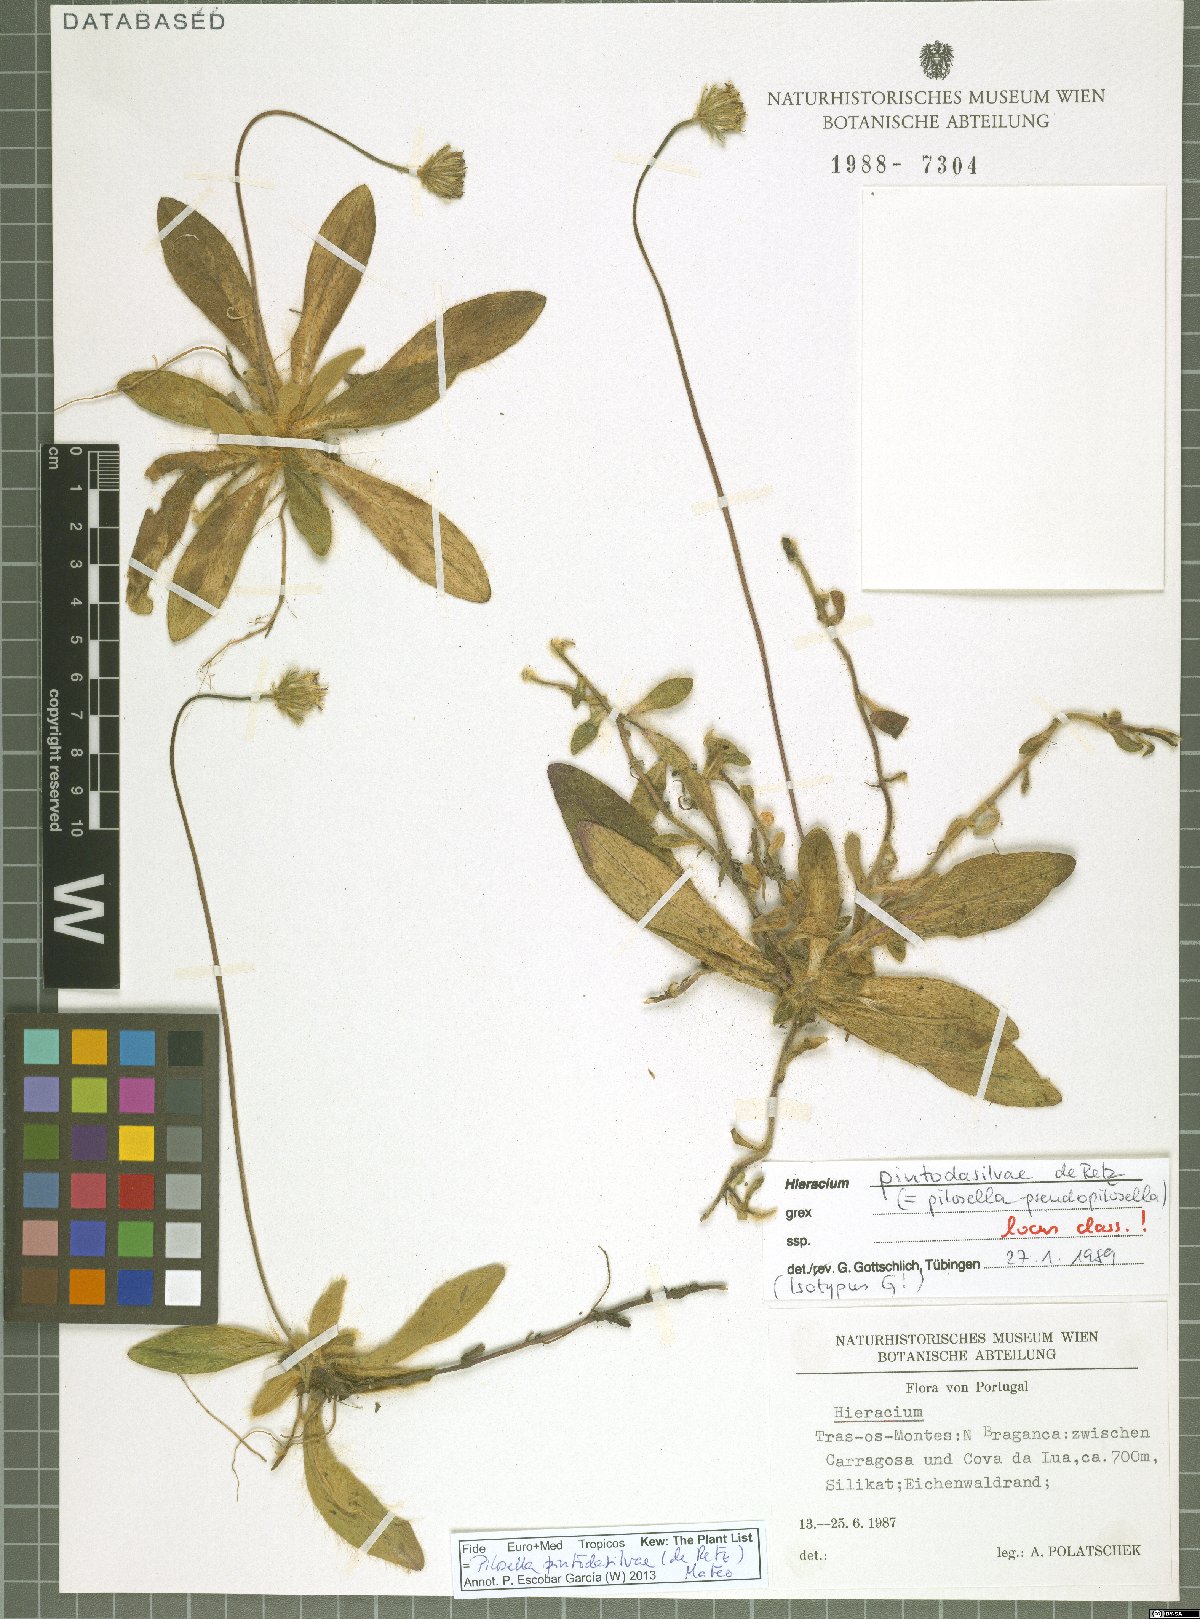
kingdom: Plantae
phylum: Tracheophyta
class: Magnoliopsida
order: Asterales
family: Asteraceae
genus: Pilosella
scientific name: Pilosella pintodasilvae
